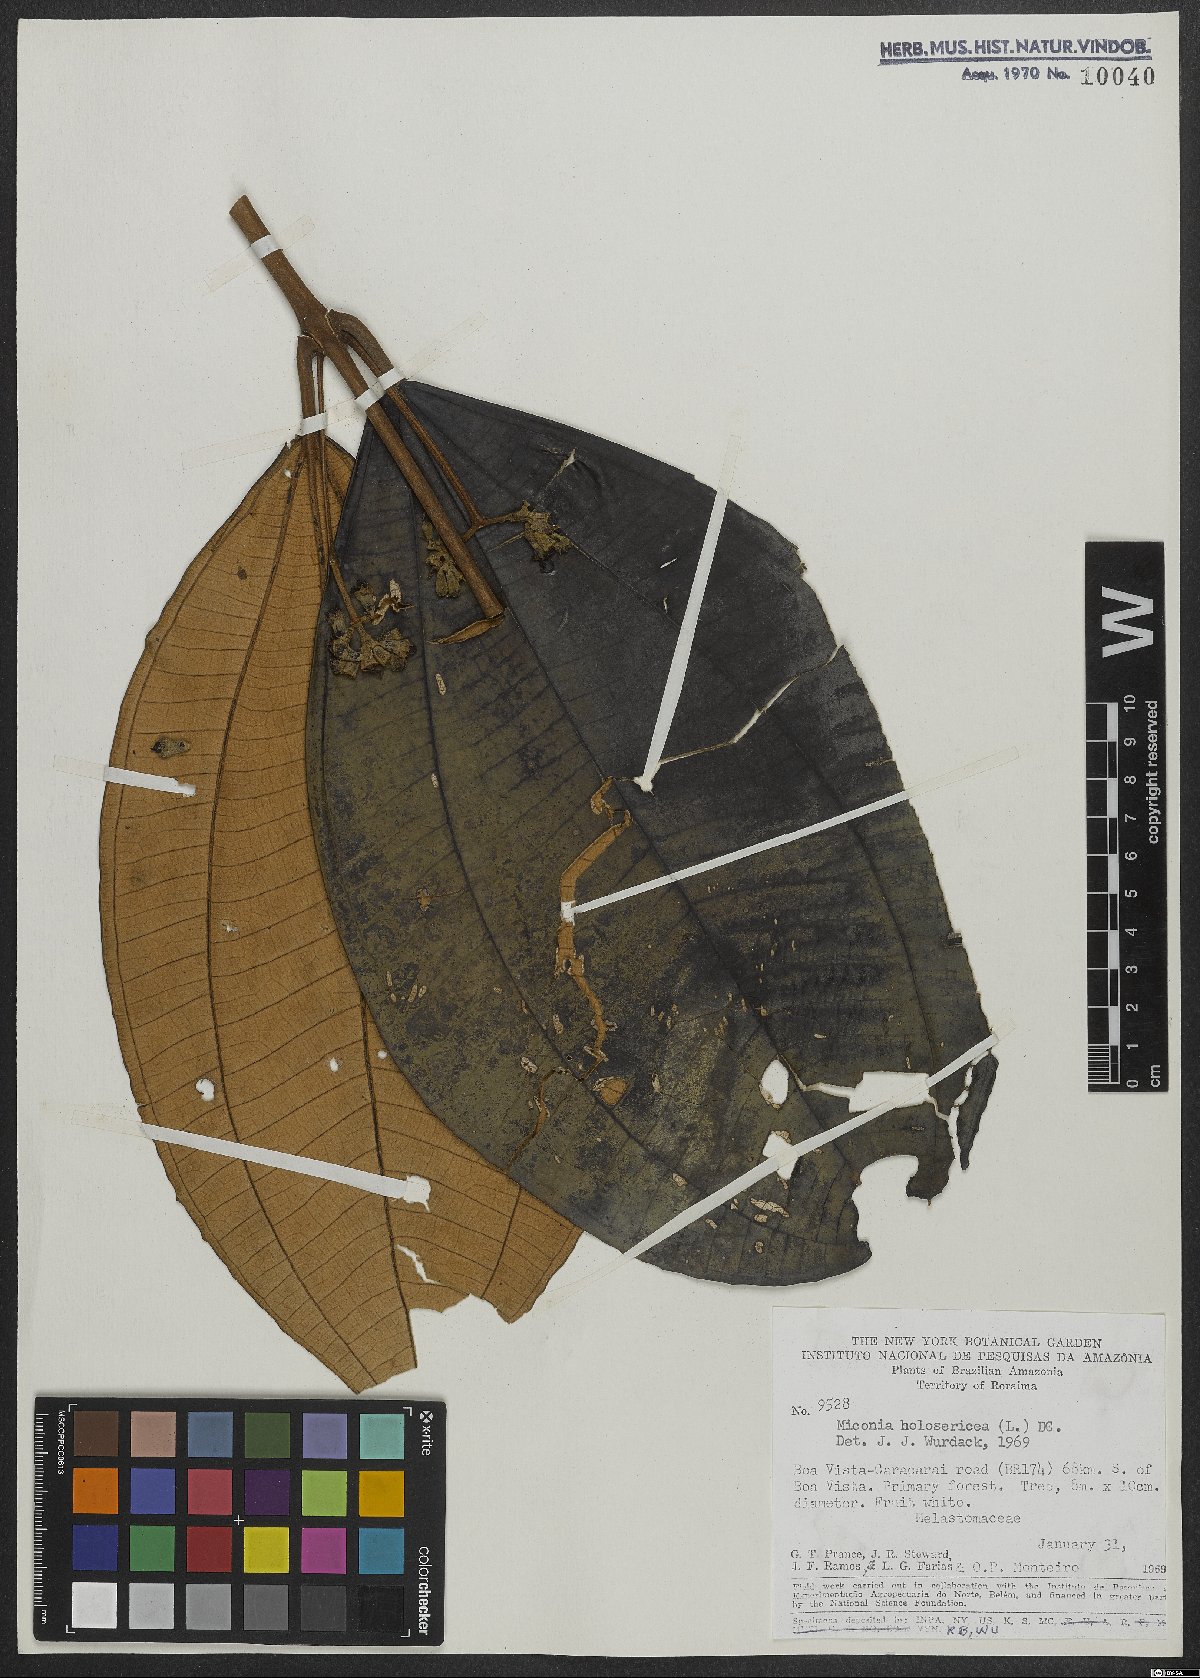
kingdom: Plantae
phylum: Tracheophyta
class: Magnoliopsida
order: Myrtales
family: Melastomataceae
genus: Miconia
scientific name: Miconia holosericea
